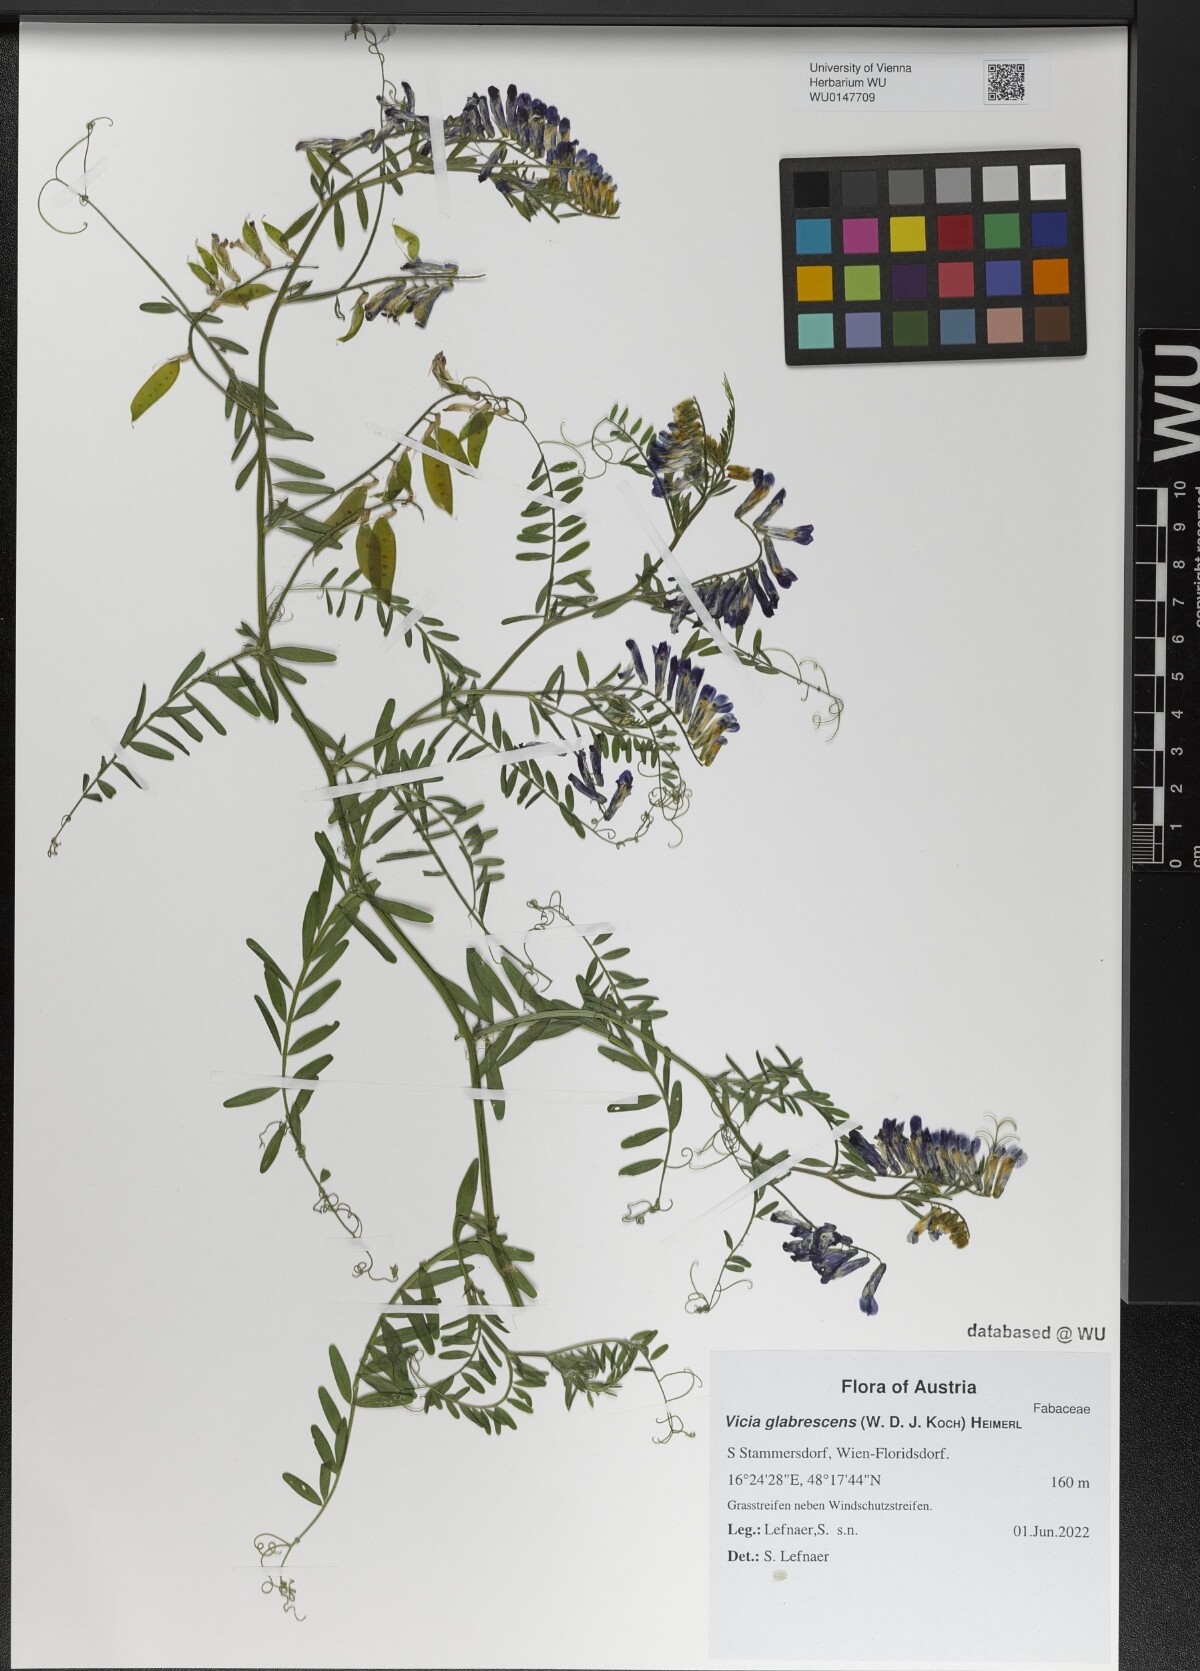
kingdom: Plantae
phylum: Tracheophyta
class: Magnoliopsida
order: Fabales
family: Fabaceae
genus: Vicia
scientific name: Vicia villosa
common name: Fodder vetch
